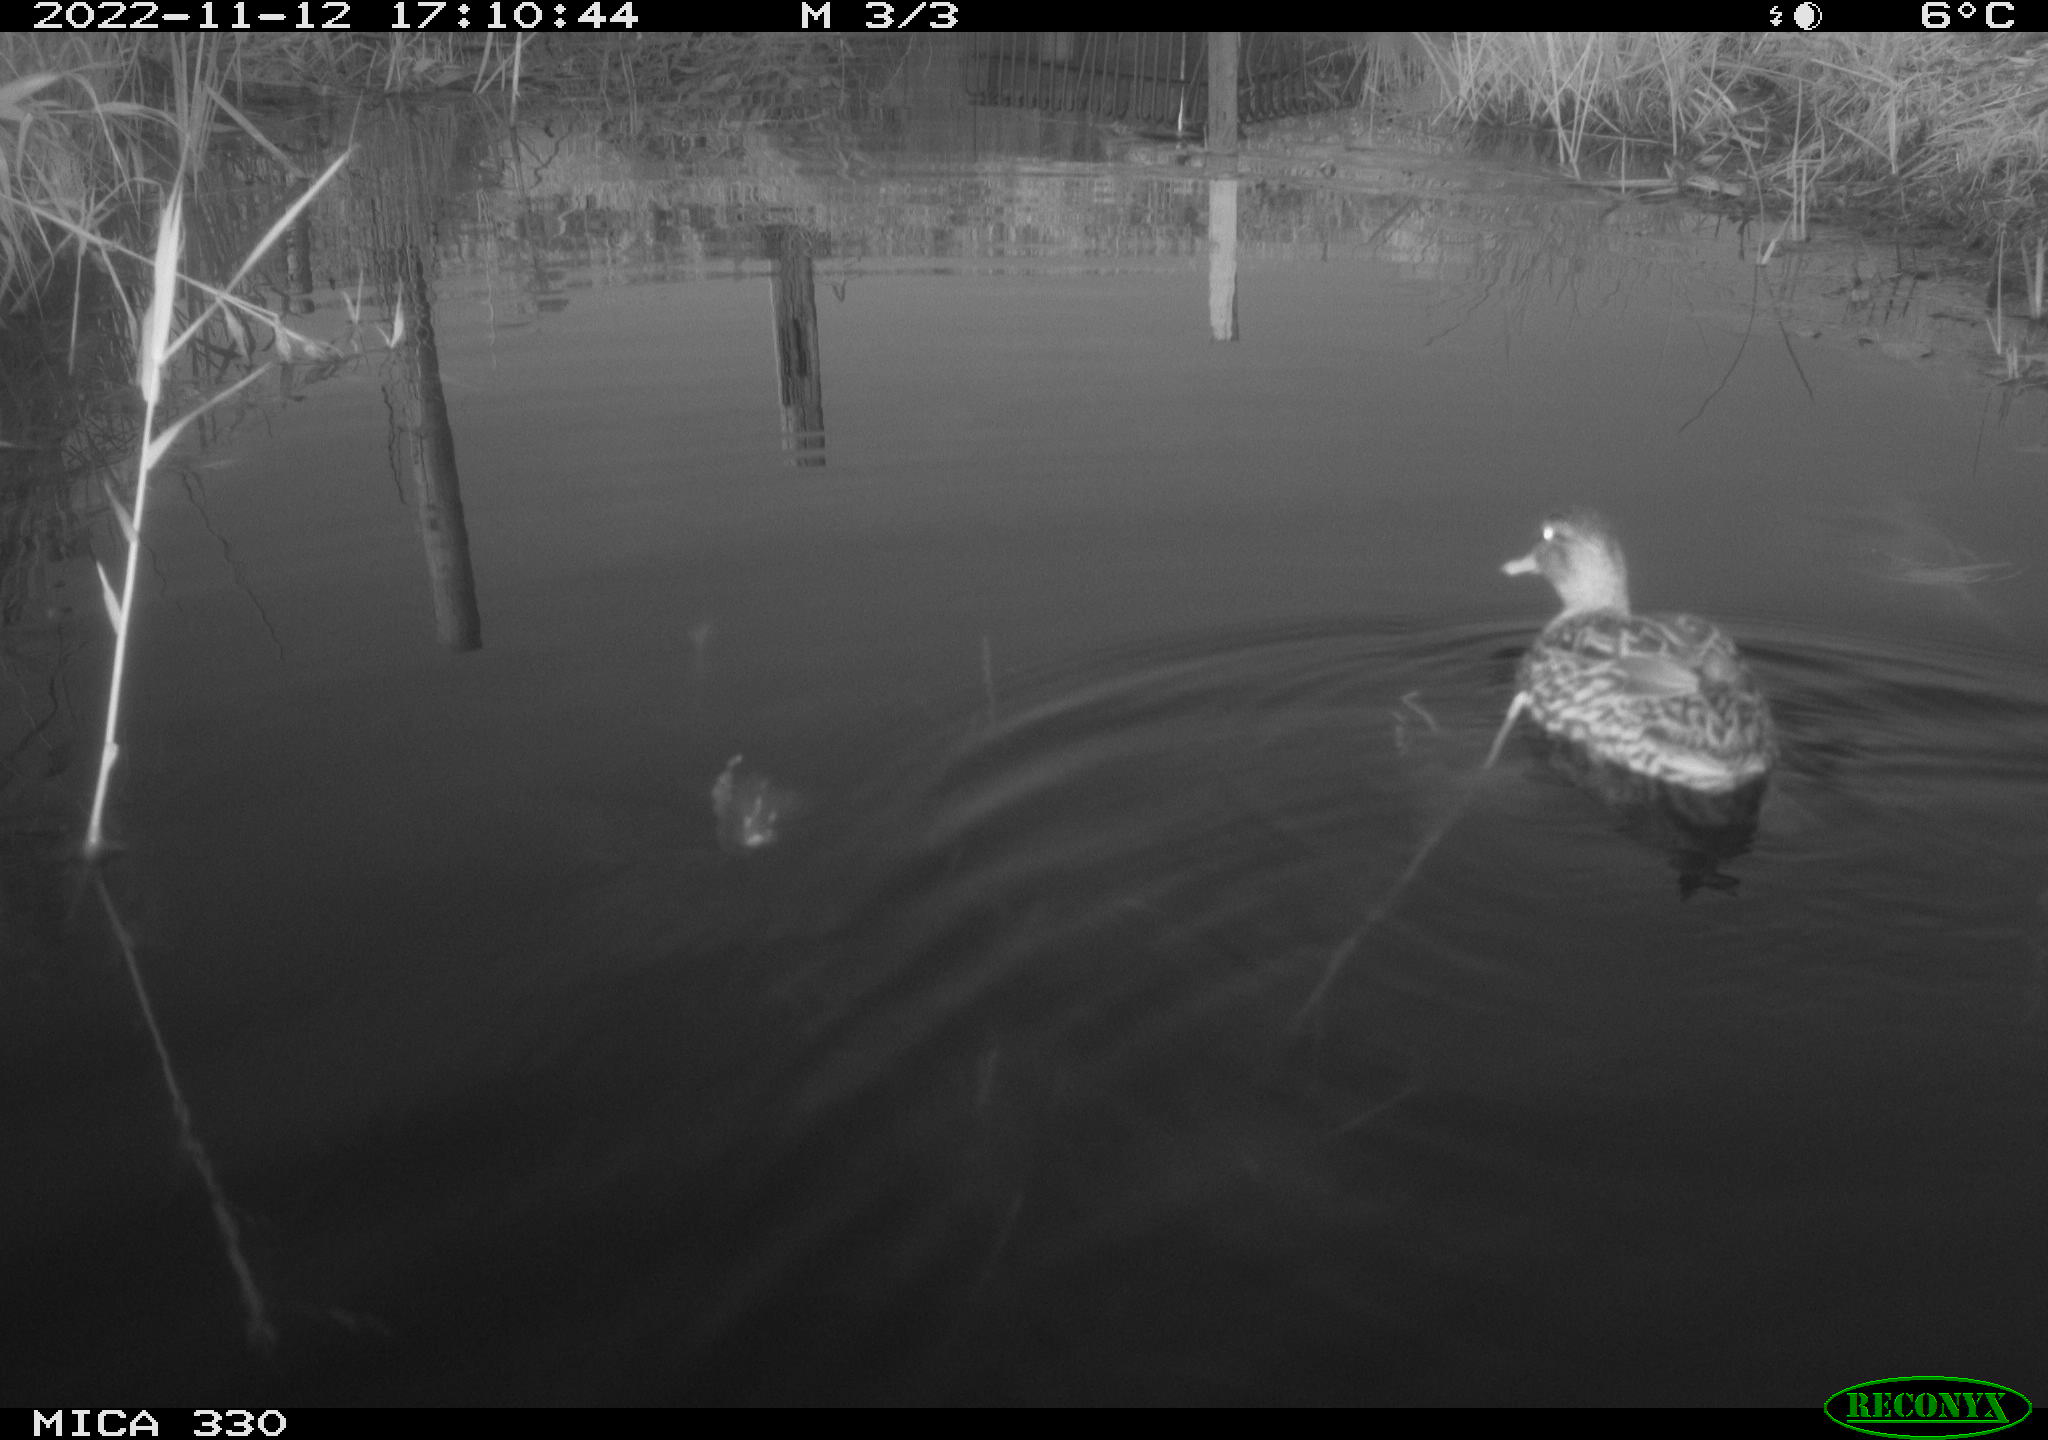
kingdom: Animalia
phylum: Chordata
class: Aves
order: Anseriformes
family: Anatidae
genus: Anas
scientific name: Anas
